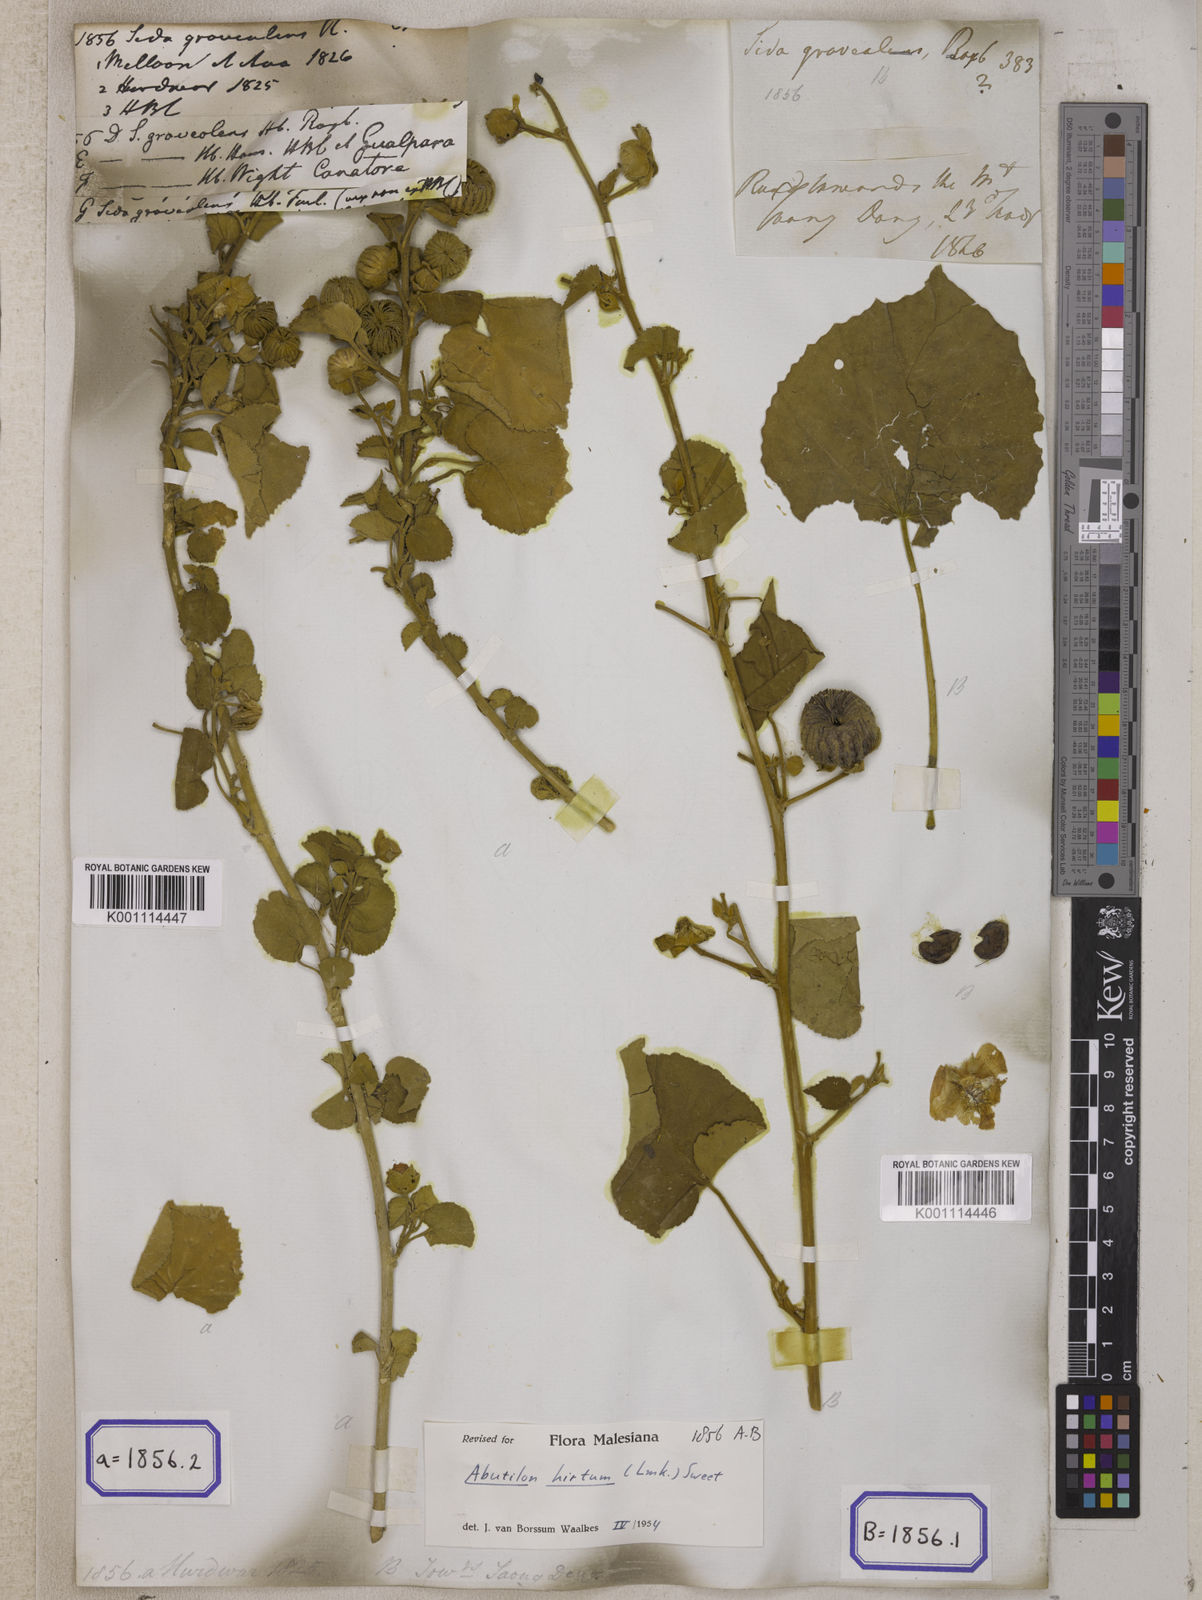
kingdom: Plantae
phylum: Tracheophyta
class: Magnoliopsida
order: Malvales
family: Malvaceae
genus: Sida
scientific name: Sida
